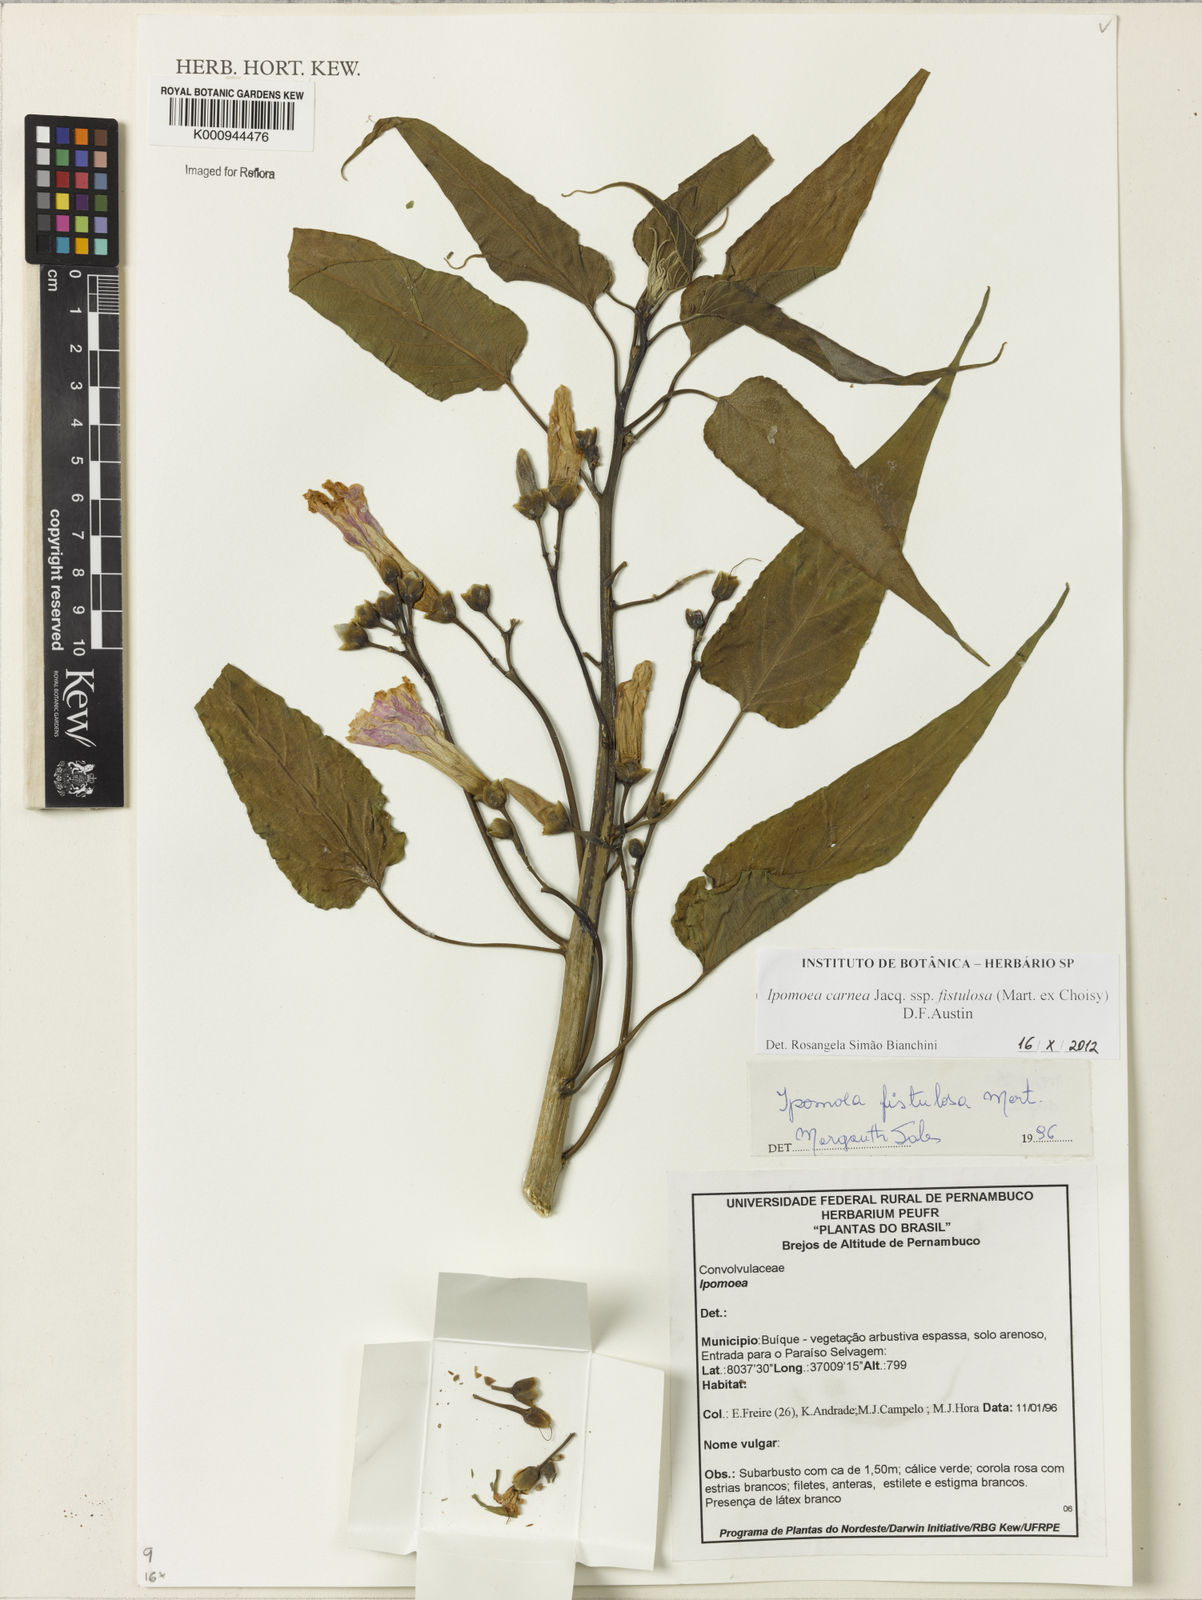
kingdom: Plantae
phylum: Tracheophyta
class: Magnoliopsida
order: Solanales
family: Convolvulaceae
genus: Ipomoea
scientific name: Ipomoea
